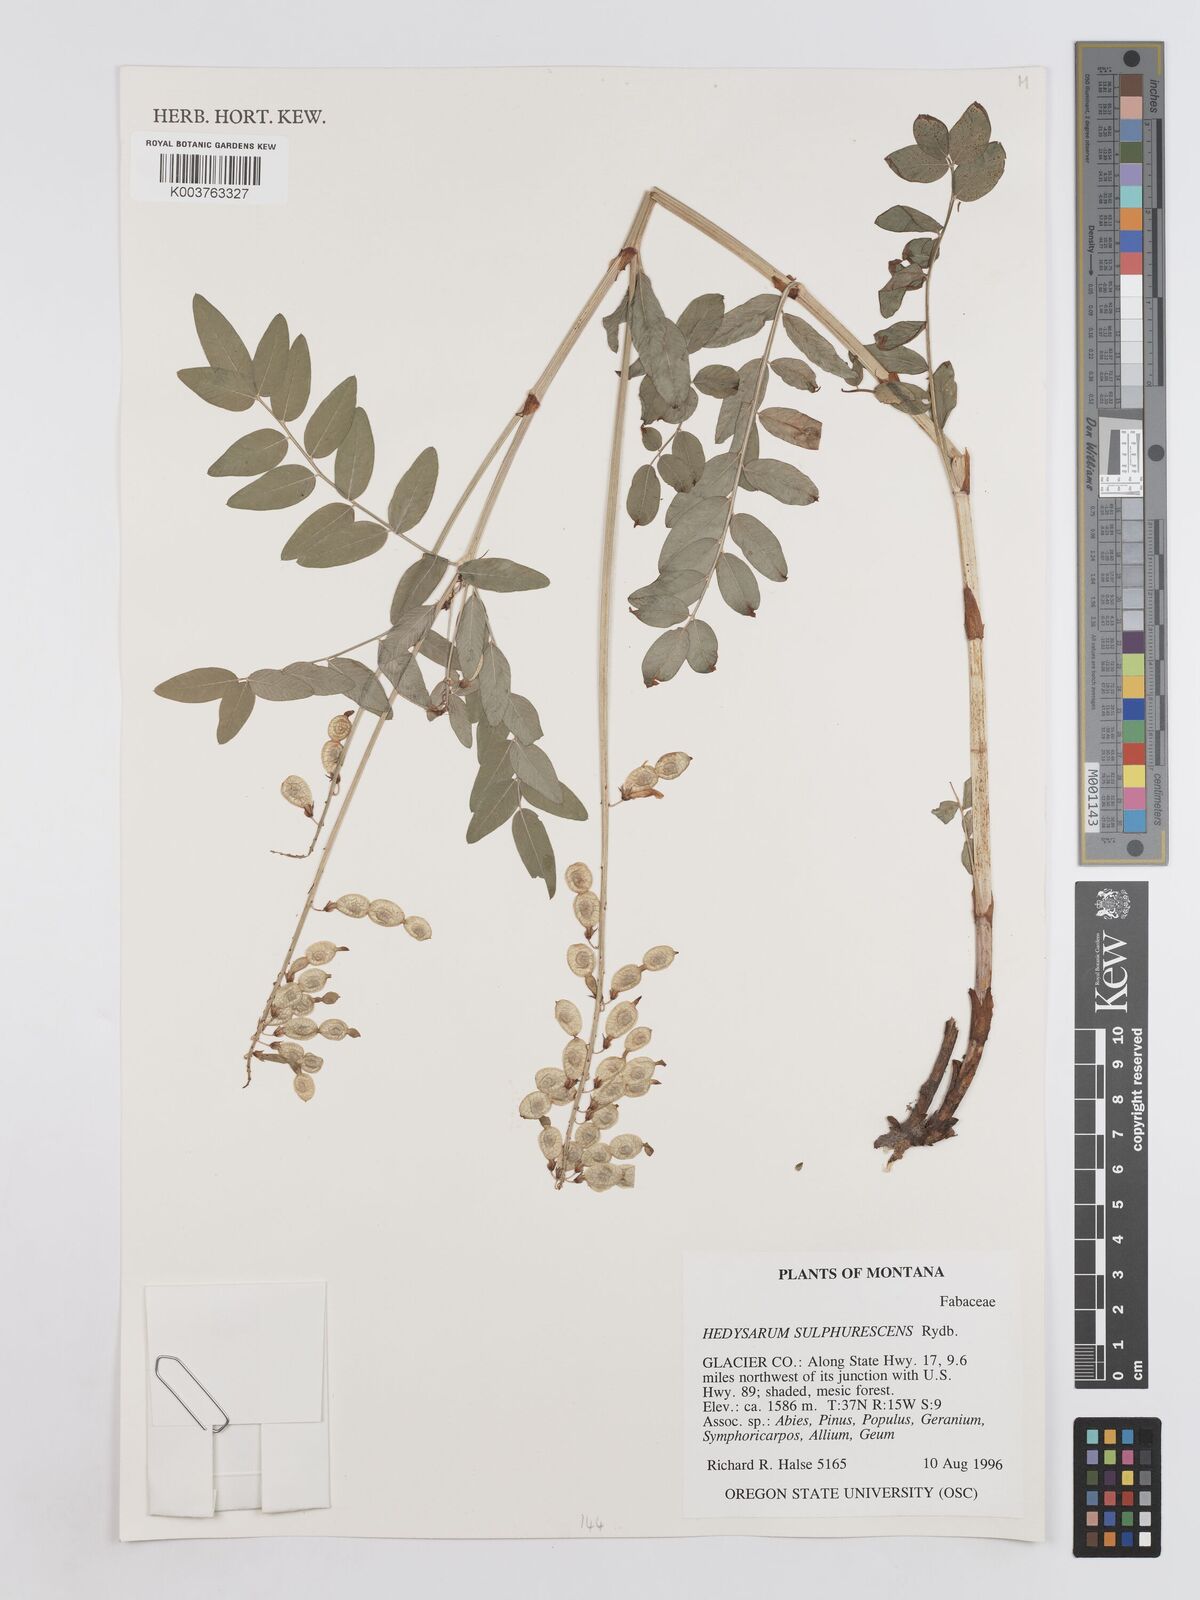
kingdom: Plantae
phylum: Tracheophyta
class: Magnoliopsida
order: Fabales
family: Fabaceae
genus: Hedysarum
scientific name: Hedysarum sulphurescens
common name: Sulphur hedysarum
